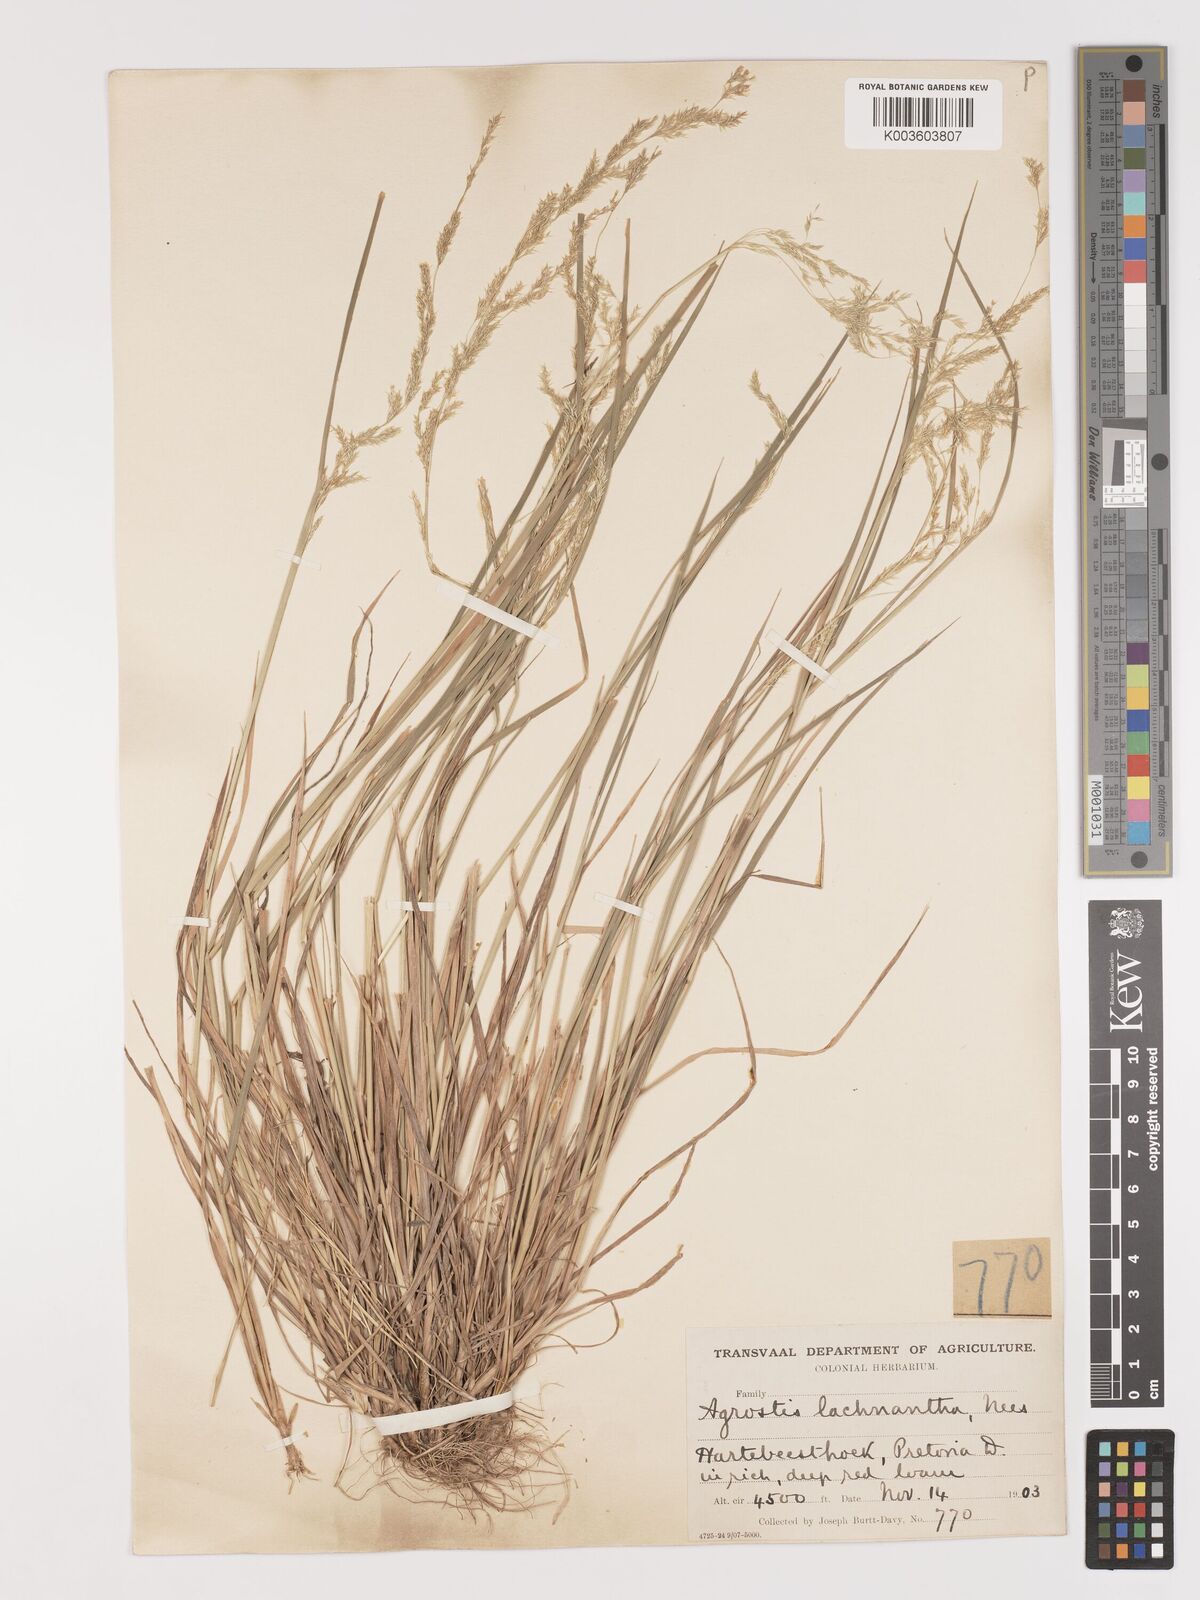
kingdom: Plantae
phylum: Tracheophyta
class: Liliopsida
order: Poales
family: Poaceae
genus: Lachnagrostis
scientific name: Lachnagrostis lachnantha
